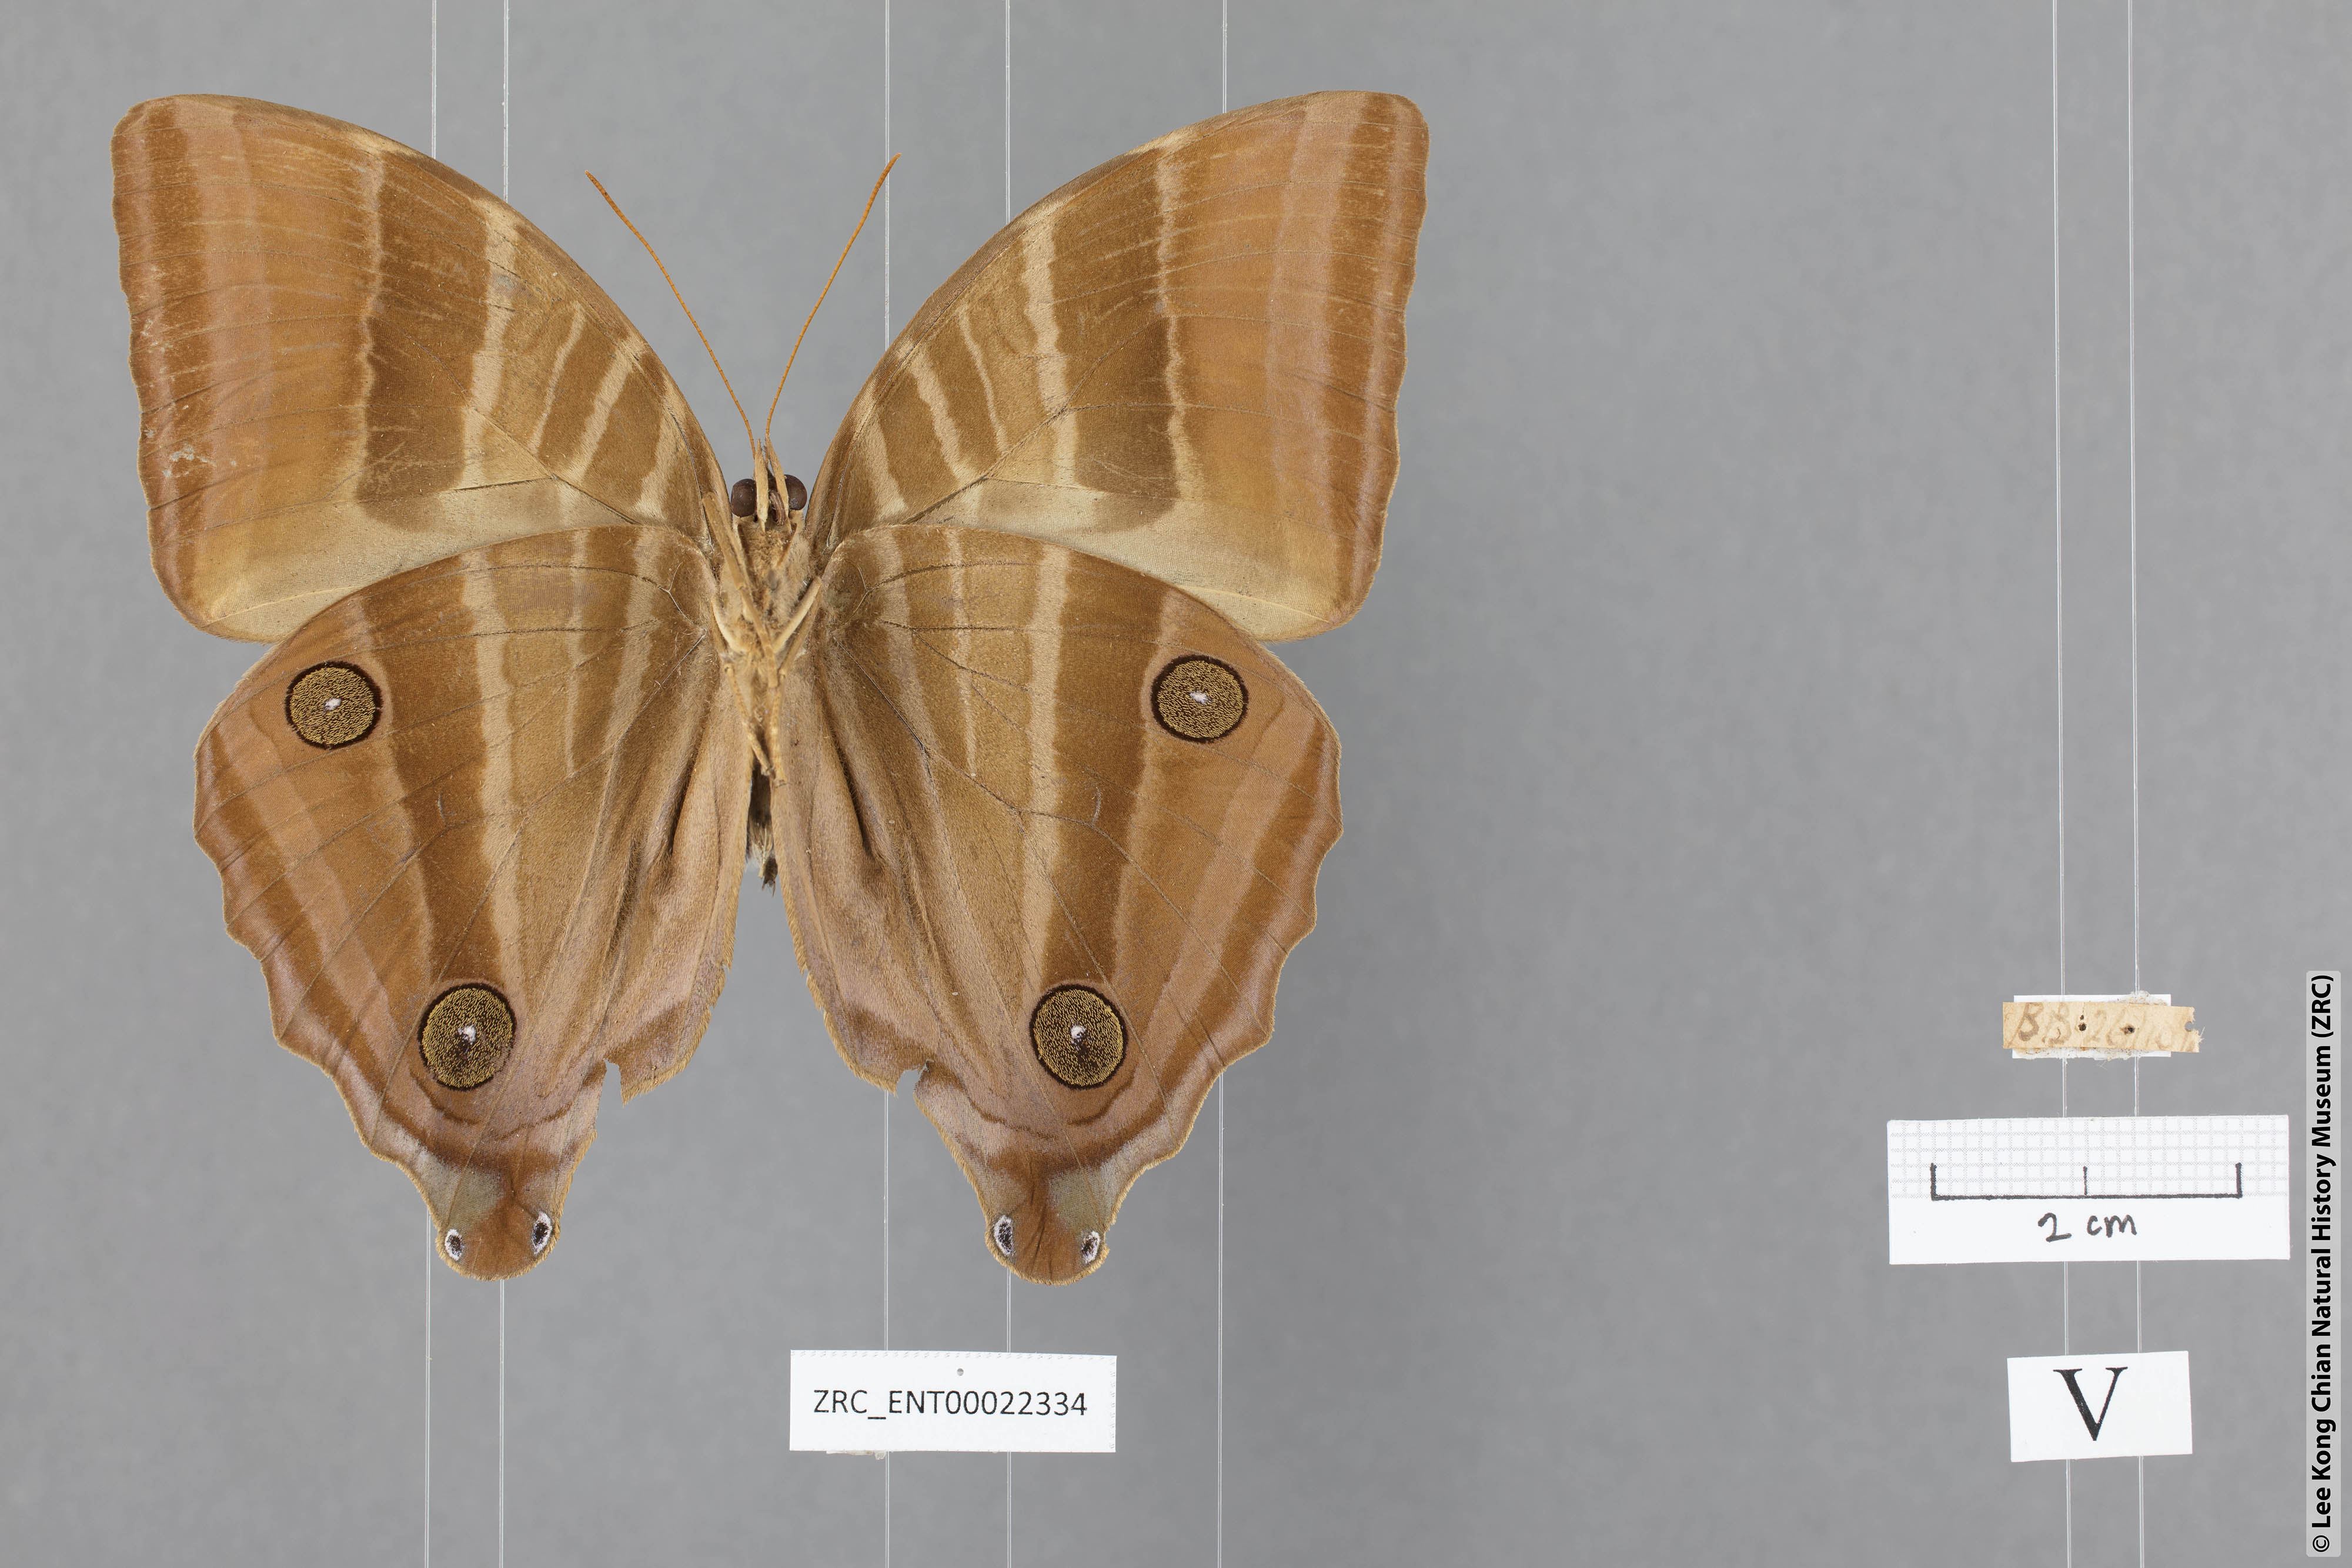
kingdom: Animalia
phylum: Arthropoda
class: Insecta
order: Lepidoptera
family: Nymphalidae
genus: Amathusia
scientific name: Amathusia phidippus
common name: Palm king
